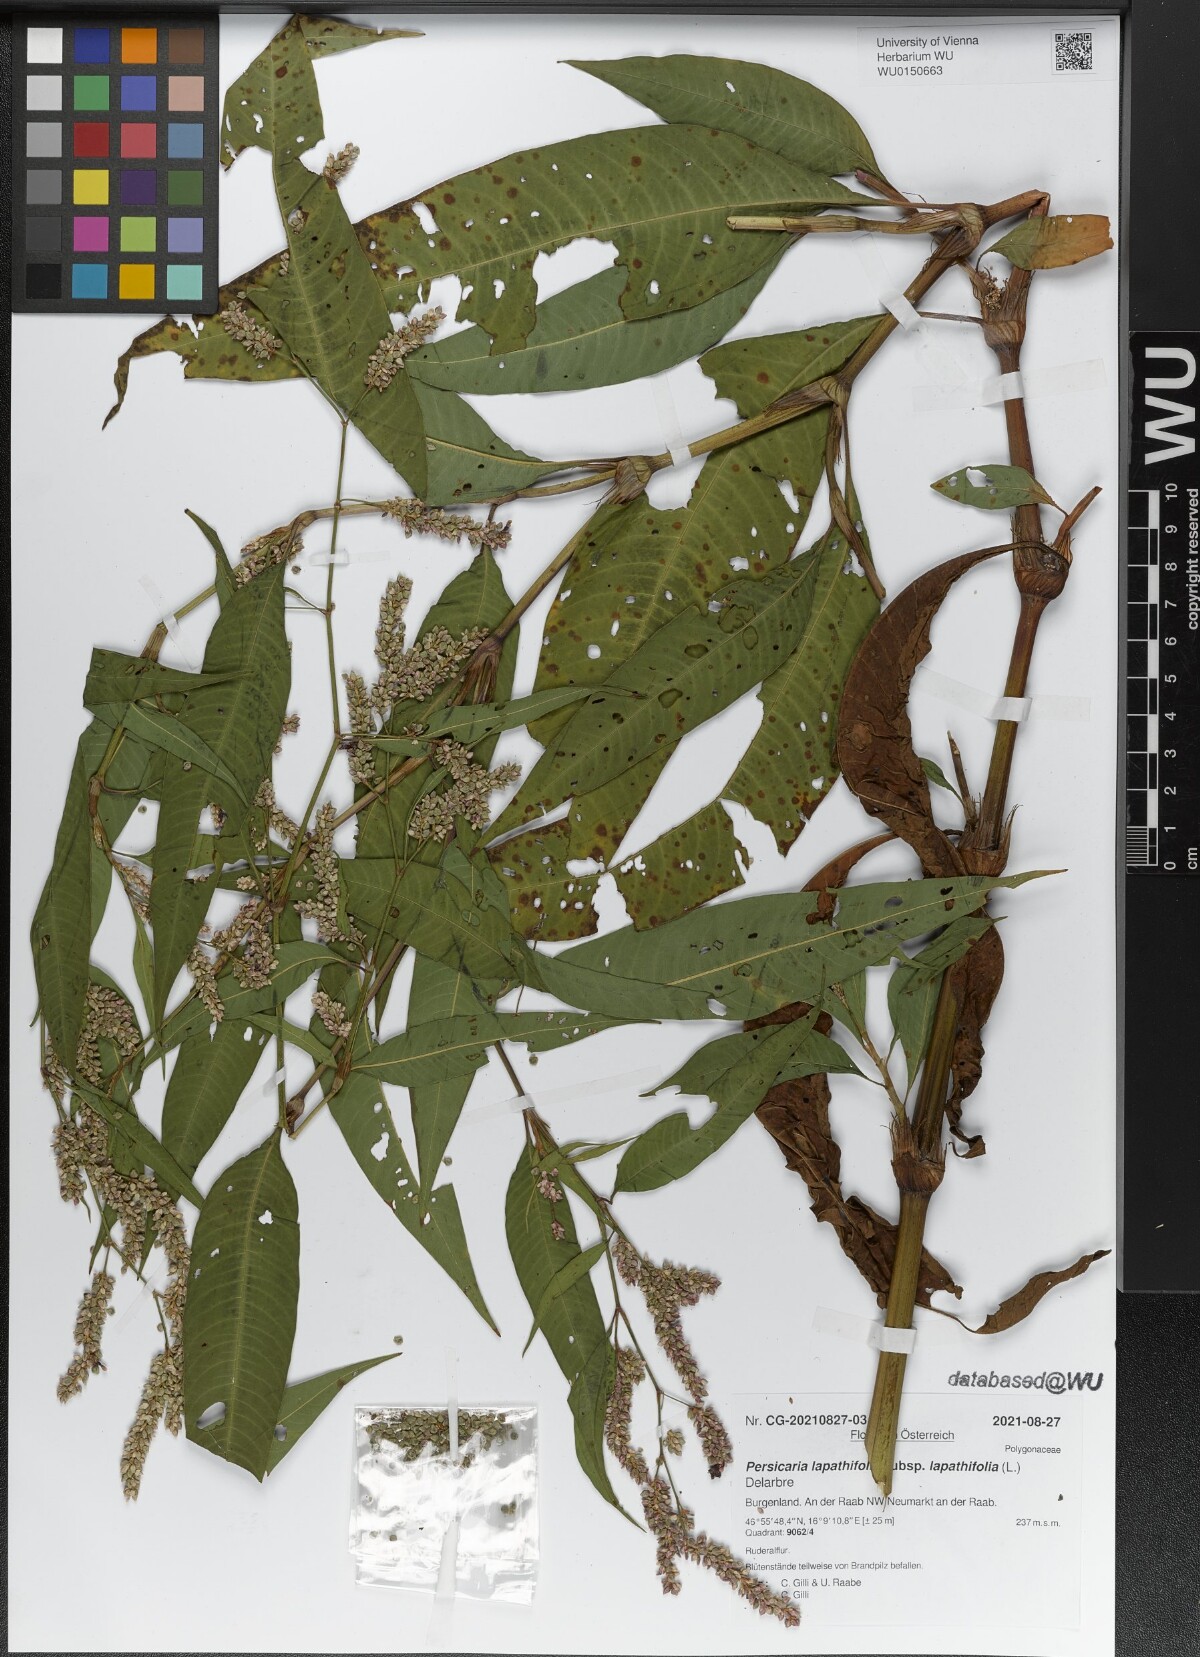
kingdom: Plantae
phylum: Tracheophyta
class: Magnoliopsida
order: Caryophyllales
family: Polygonaceae
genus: Persicaria
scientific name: Persicaria lapathifolia
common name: Curlytop knotweed
